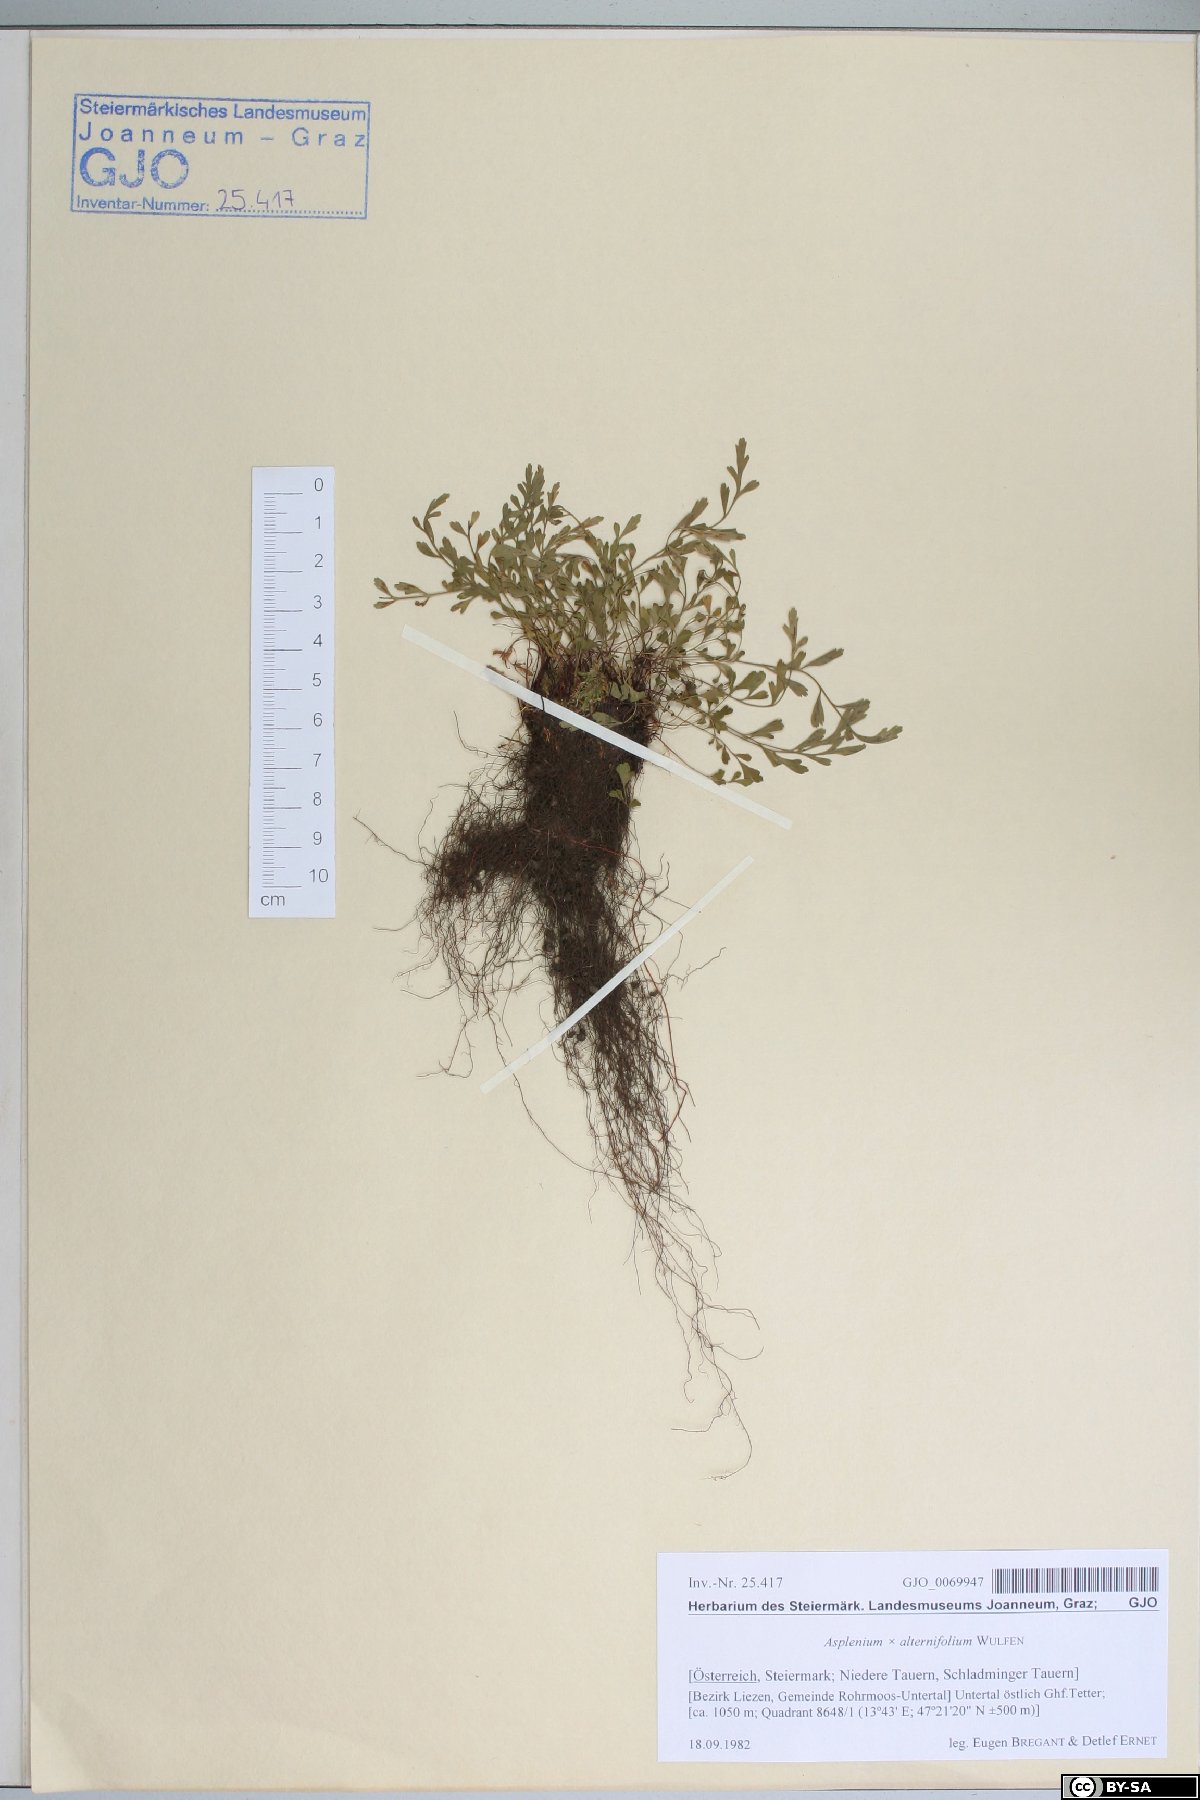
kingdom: Plantae
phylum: Tracheophyta
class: Polypodiopsida
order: Polypodiales
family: Aspleniaceae
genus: Asplenium
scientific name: Asplenium alternifolium
